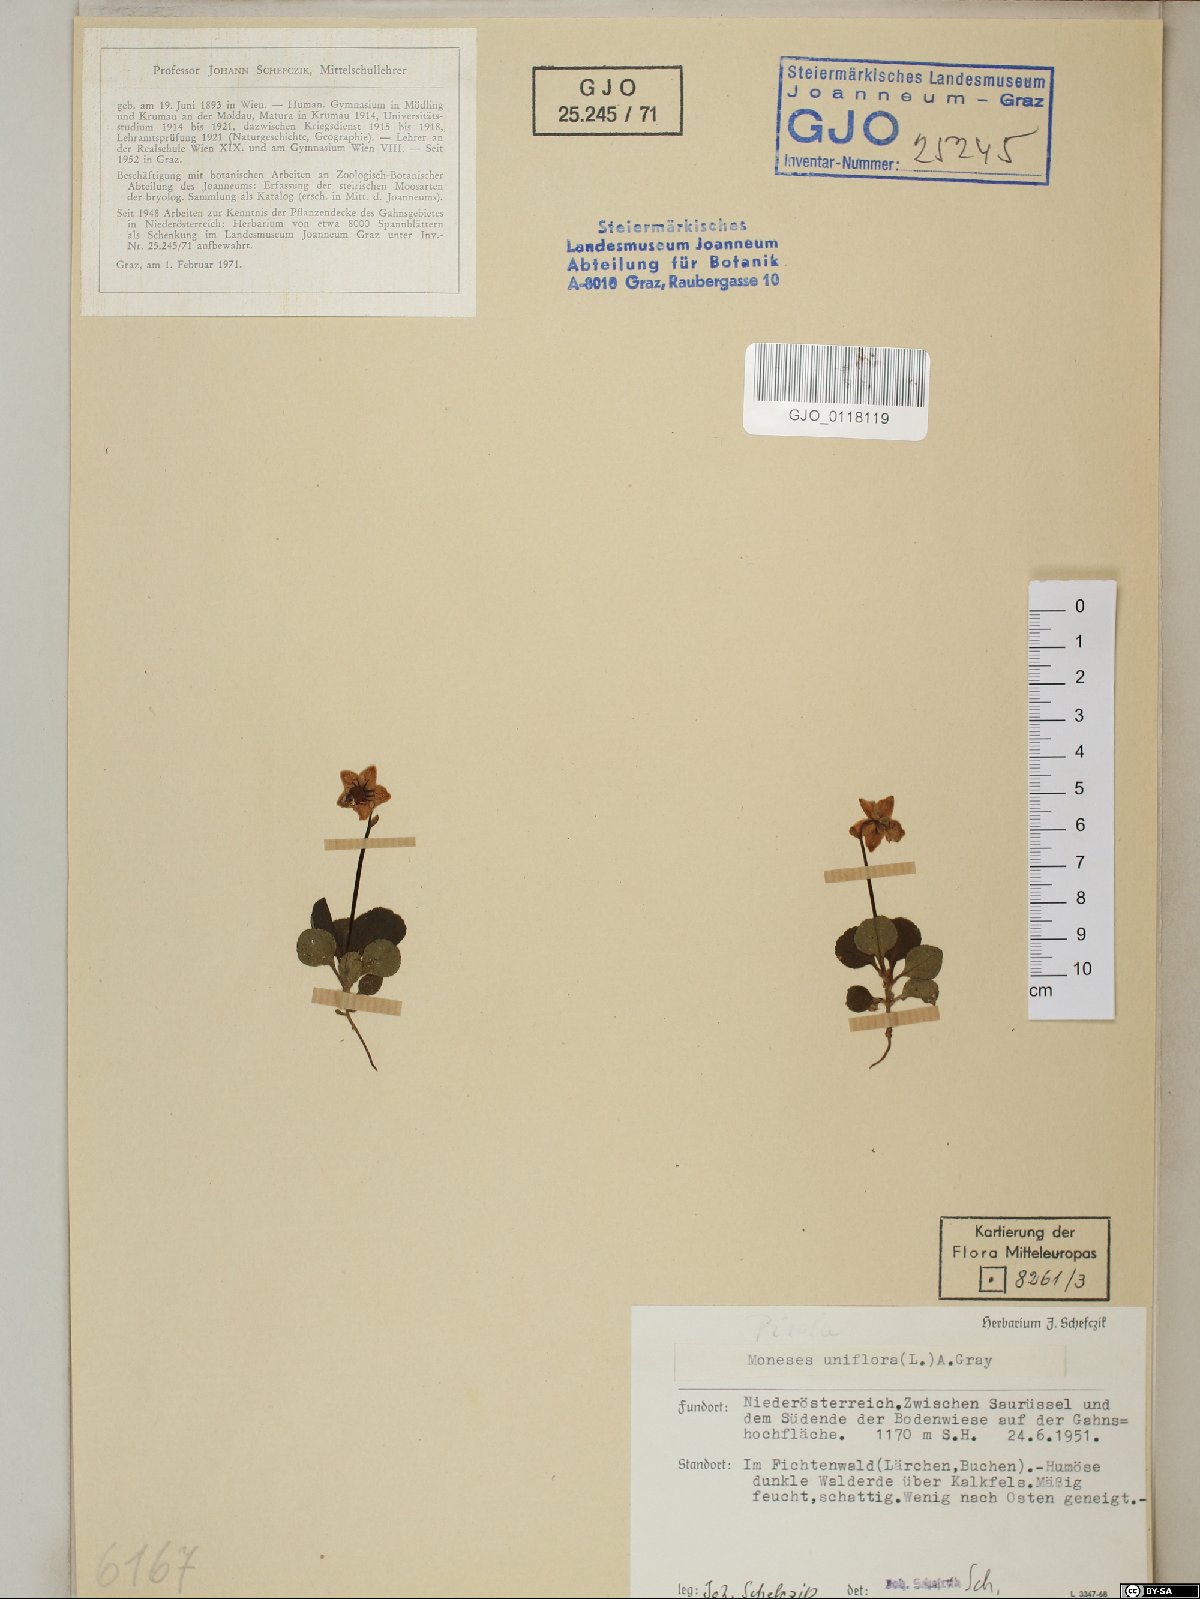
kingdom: Plantae
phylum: Tracheophyta
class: Magnoliopsida
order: Ericales
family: Ericaceae
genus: Moneses
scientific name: Moneses uniflora
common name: One-flowered wintergreen
